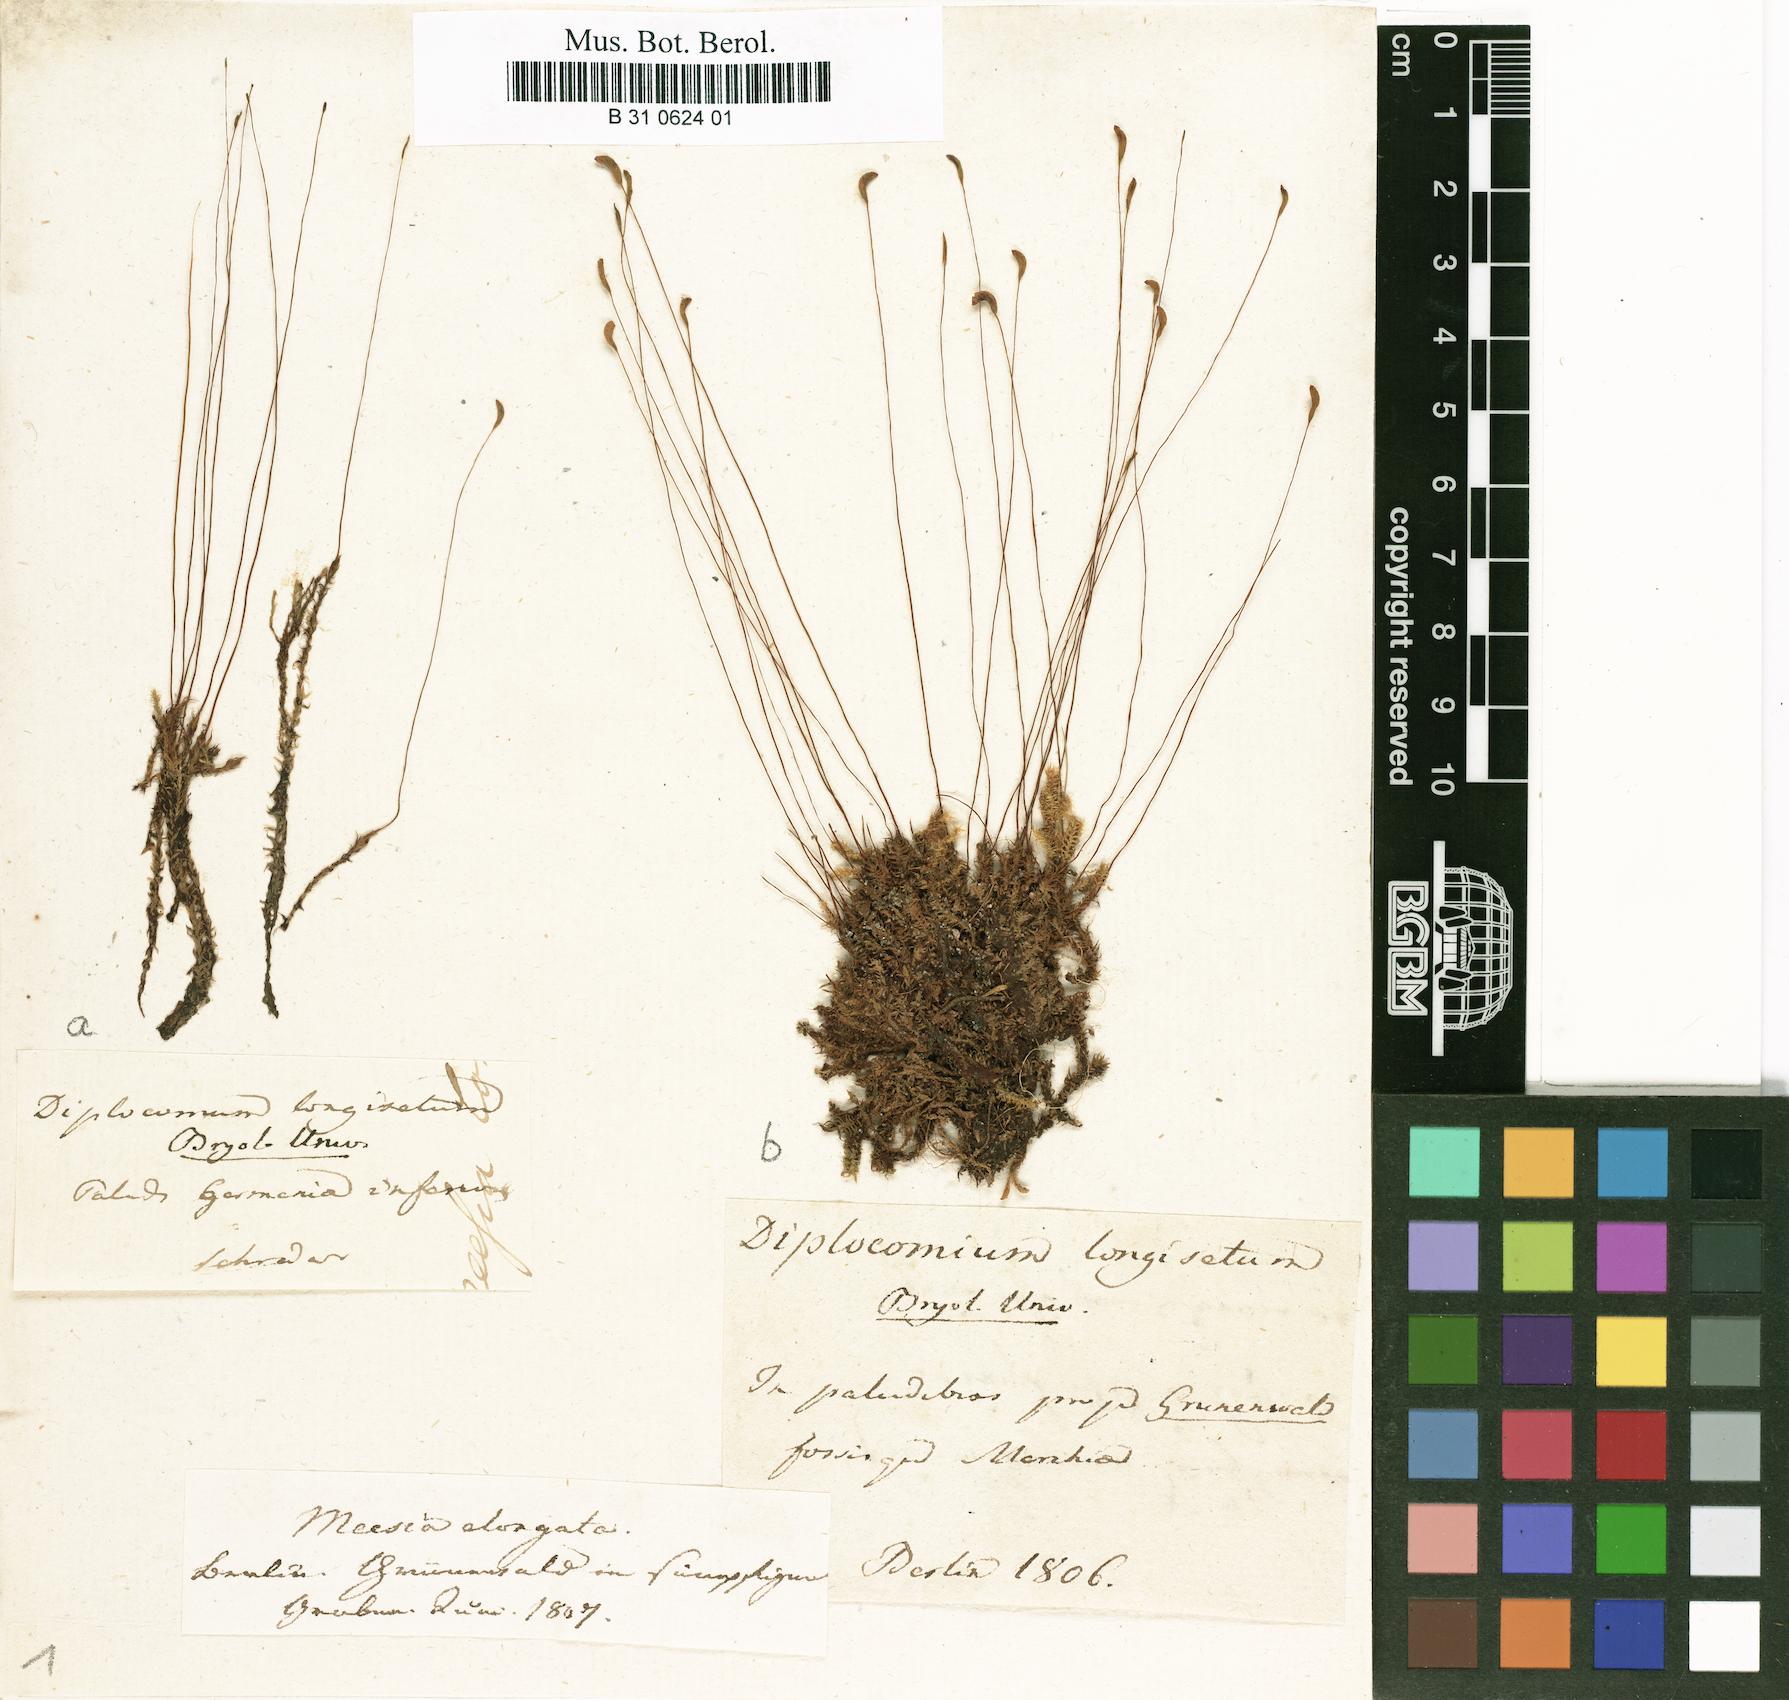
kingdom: Plantae
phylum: Bryophyta
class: Bryopsida
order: Splachnales
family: Meesiaceae
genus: Meesia
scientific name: Meesia longiseta
